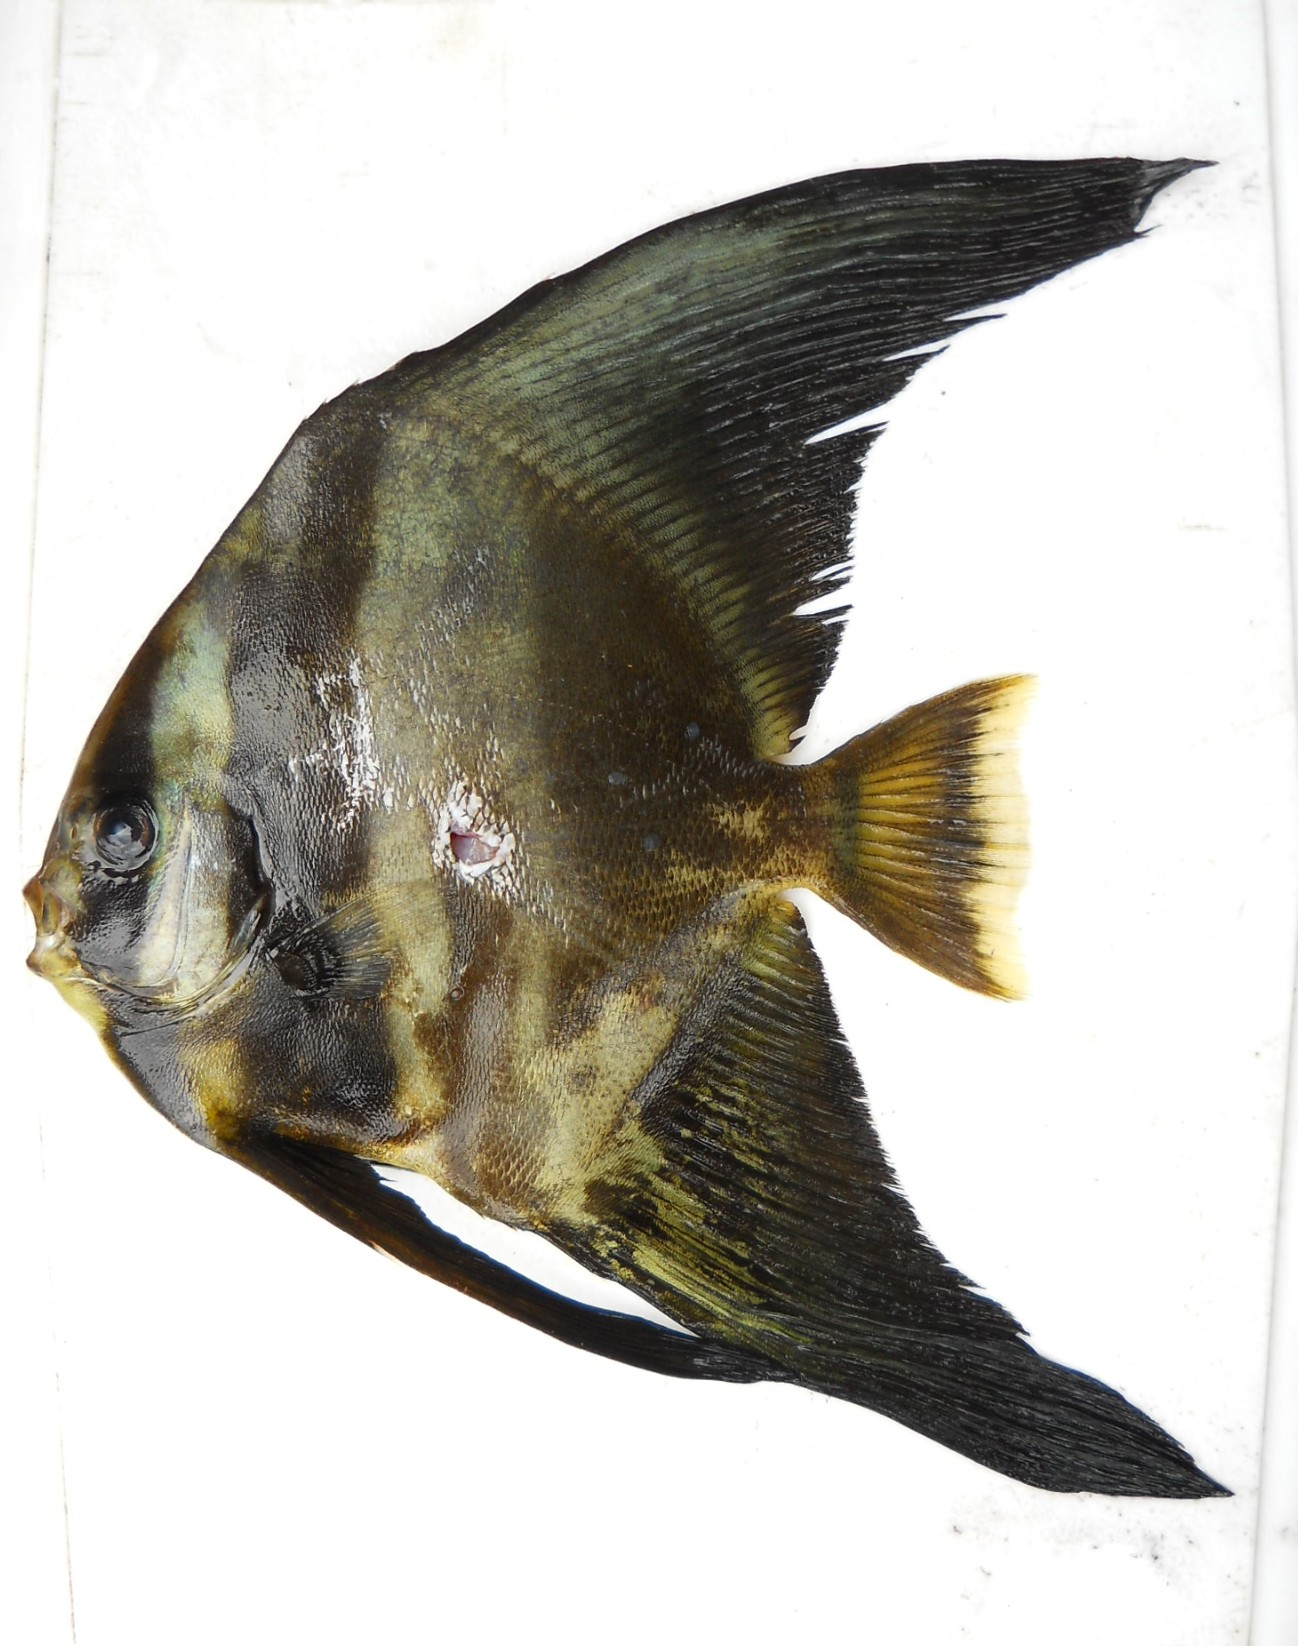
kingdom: Animalia
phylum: Chordata
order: Perciformes
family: Ephippidae
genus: Platax
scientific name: Platax teira
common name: Longfin baitfish
